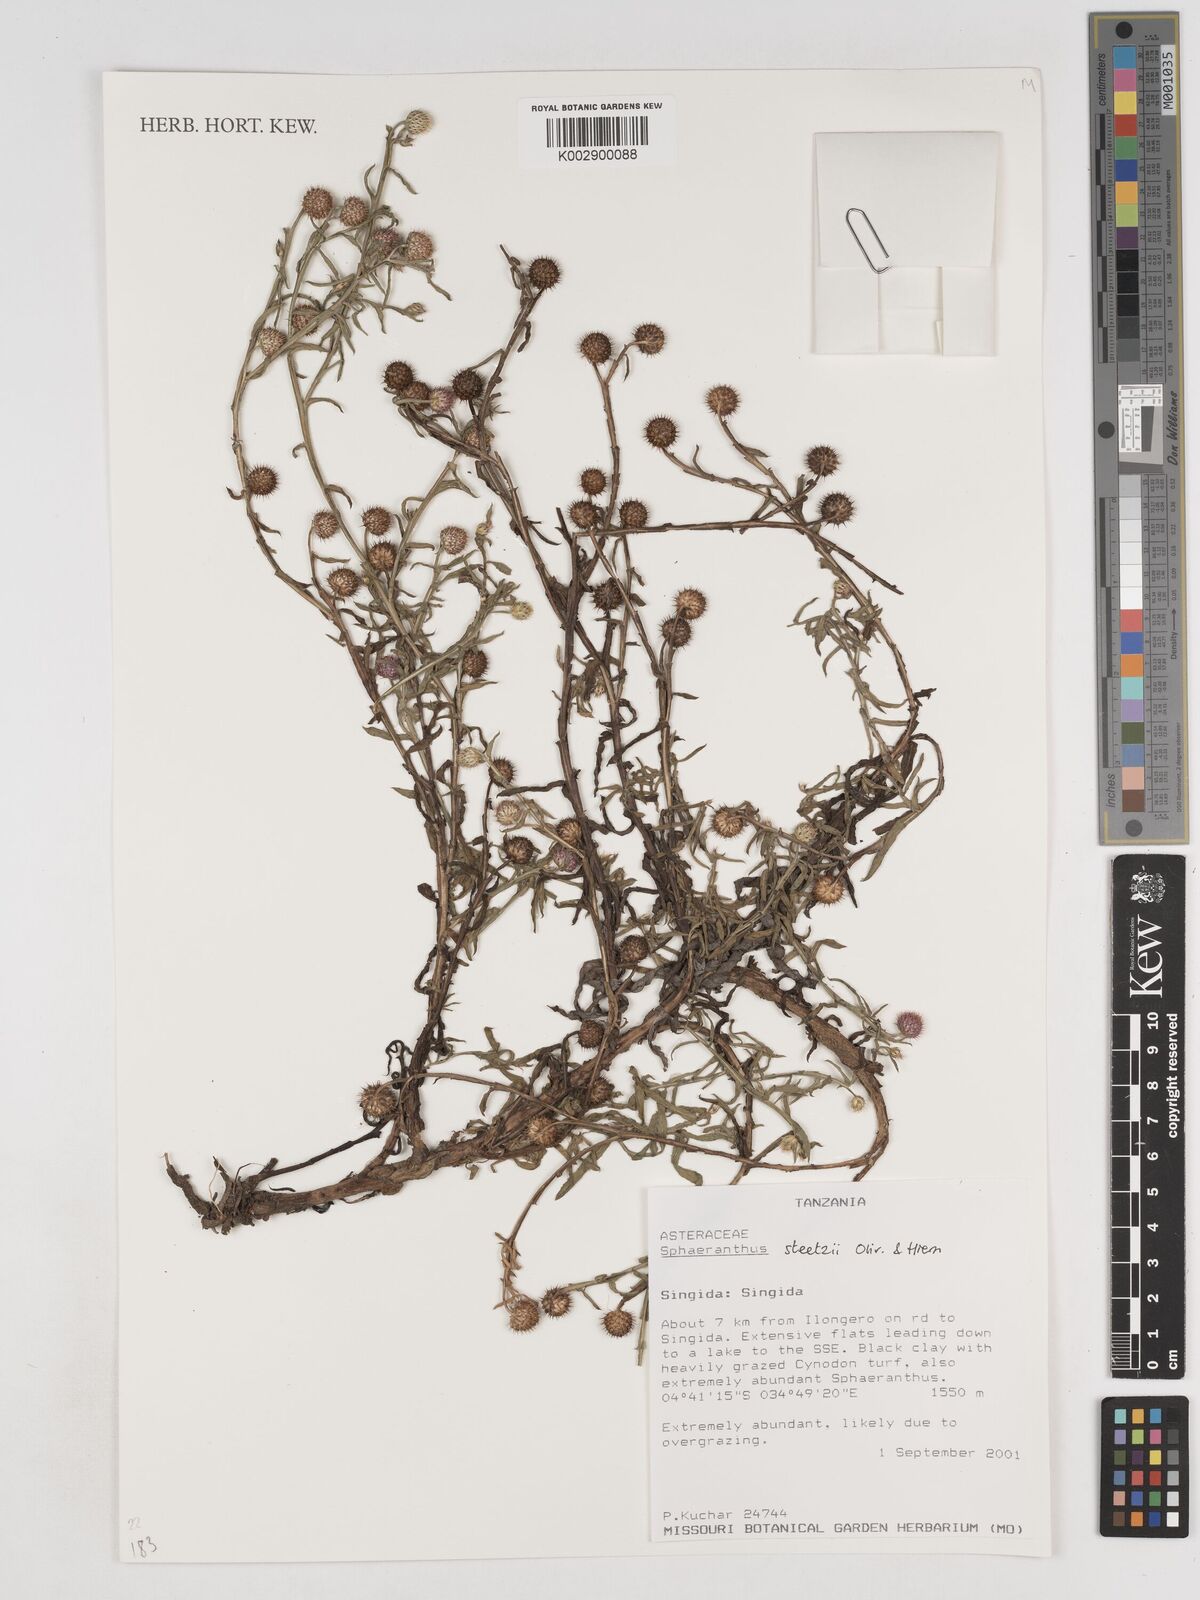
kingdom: Plantae
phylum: Tracheophyta
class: Magnoliopsida
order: Asterales
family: Asteraceae
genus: Sphaeranthus
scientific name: Sphaeranthus steetzii
